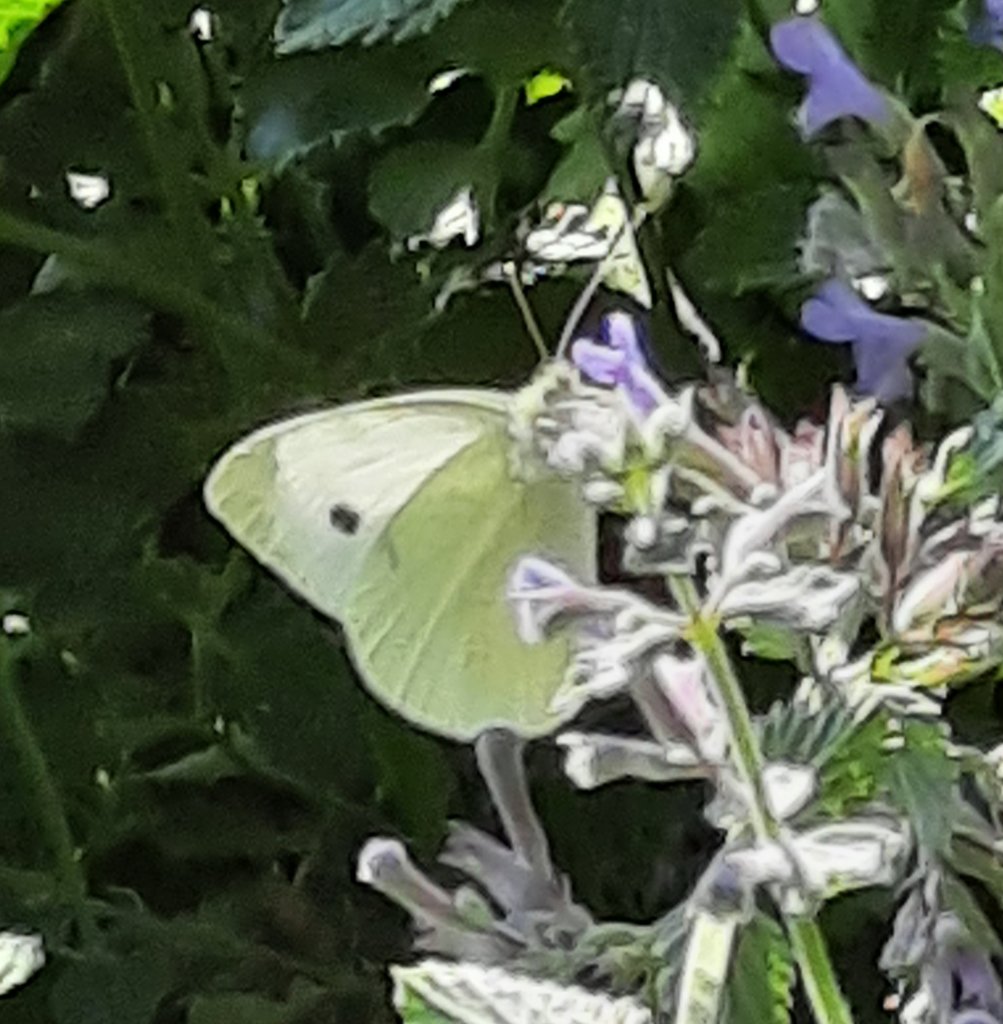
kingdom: Animalia
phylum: Arthropoda
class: Insecta
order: Lepidoptera
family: Pieridae
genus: Pieris
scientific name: Pieris rapae
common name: Cabbage White
